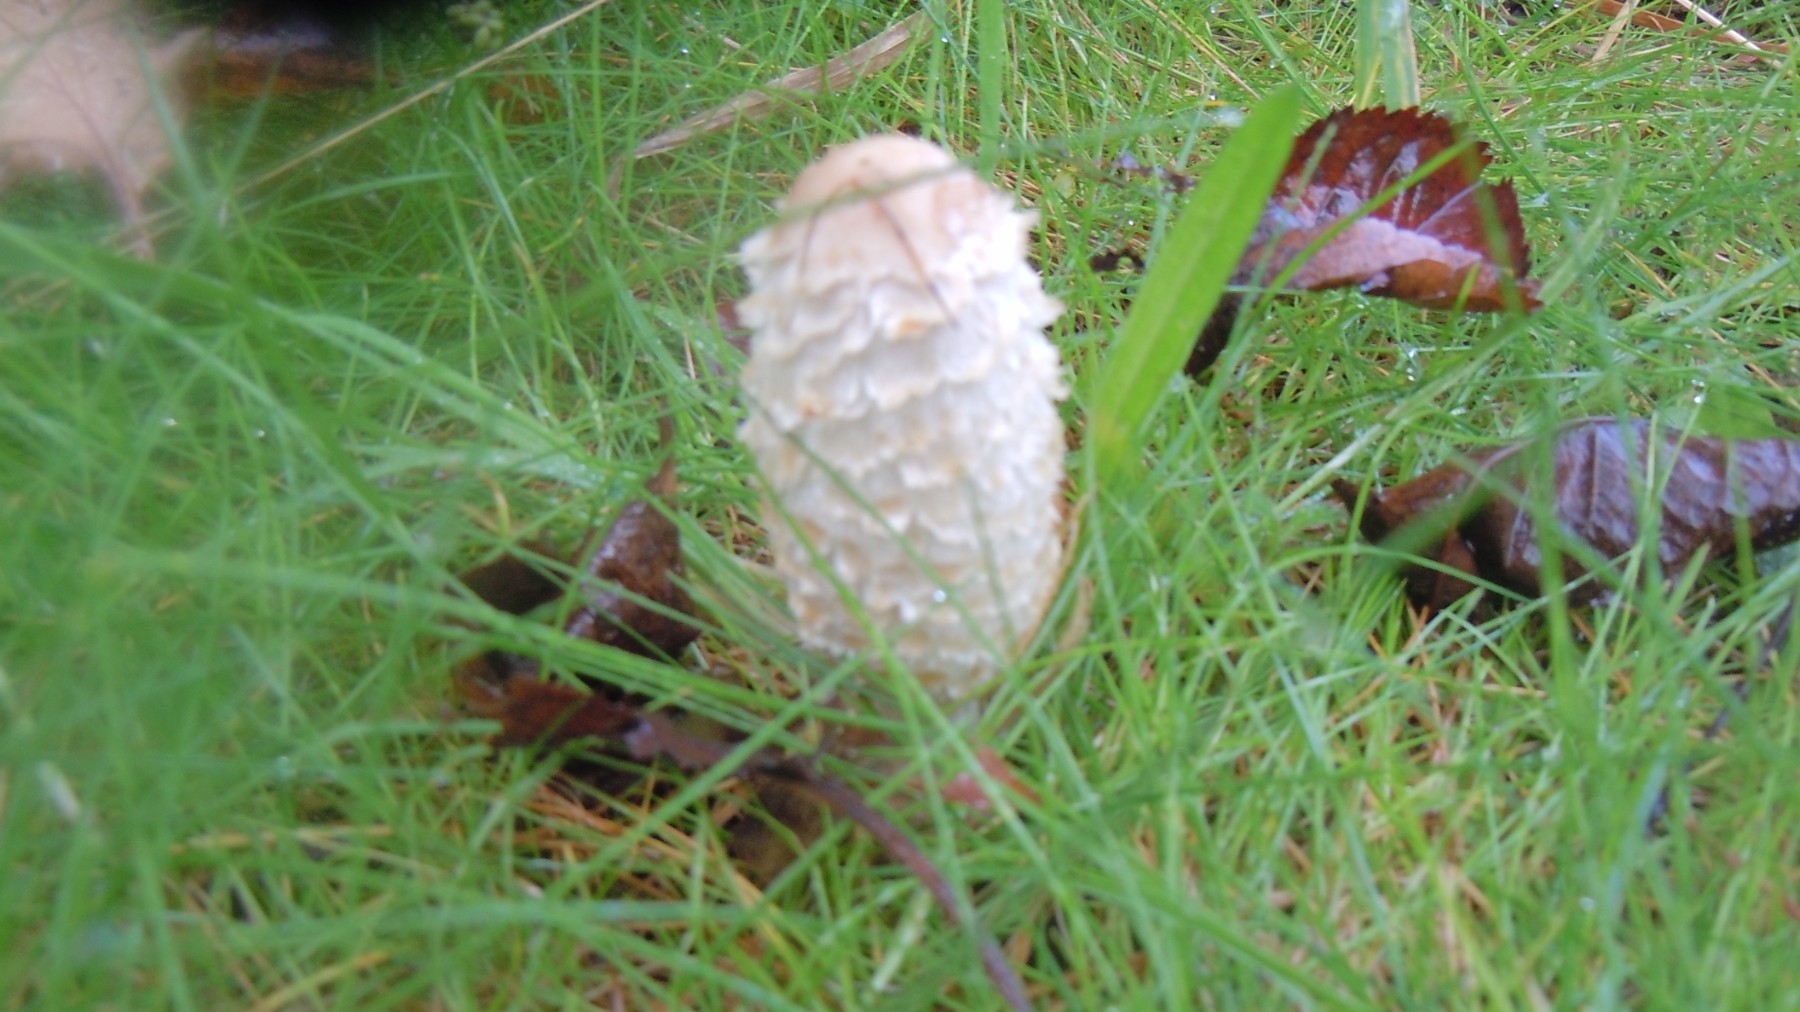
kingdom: Fungi
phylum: Basidiomycota
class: Agaricomycetes
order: Agaricales
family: Agaricaceae
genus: Coprinus
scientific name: Coprinus comatus
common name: stor parykhat
